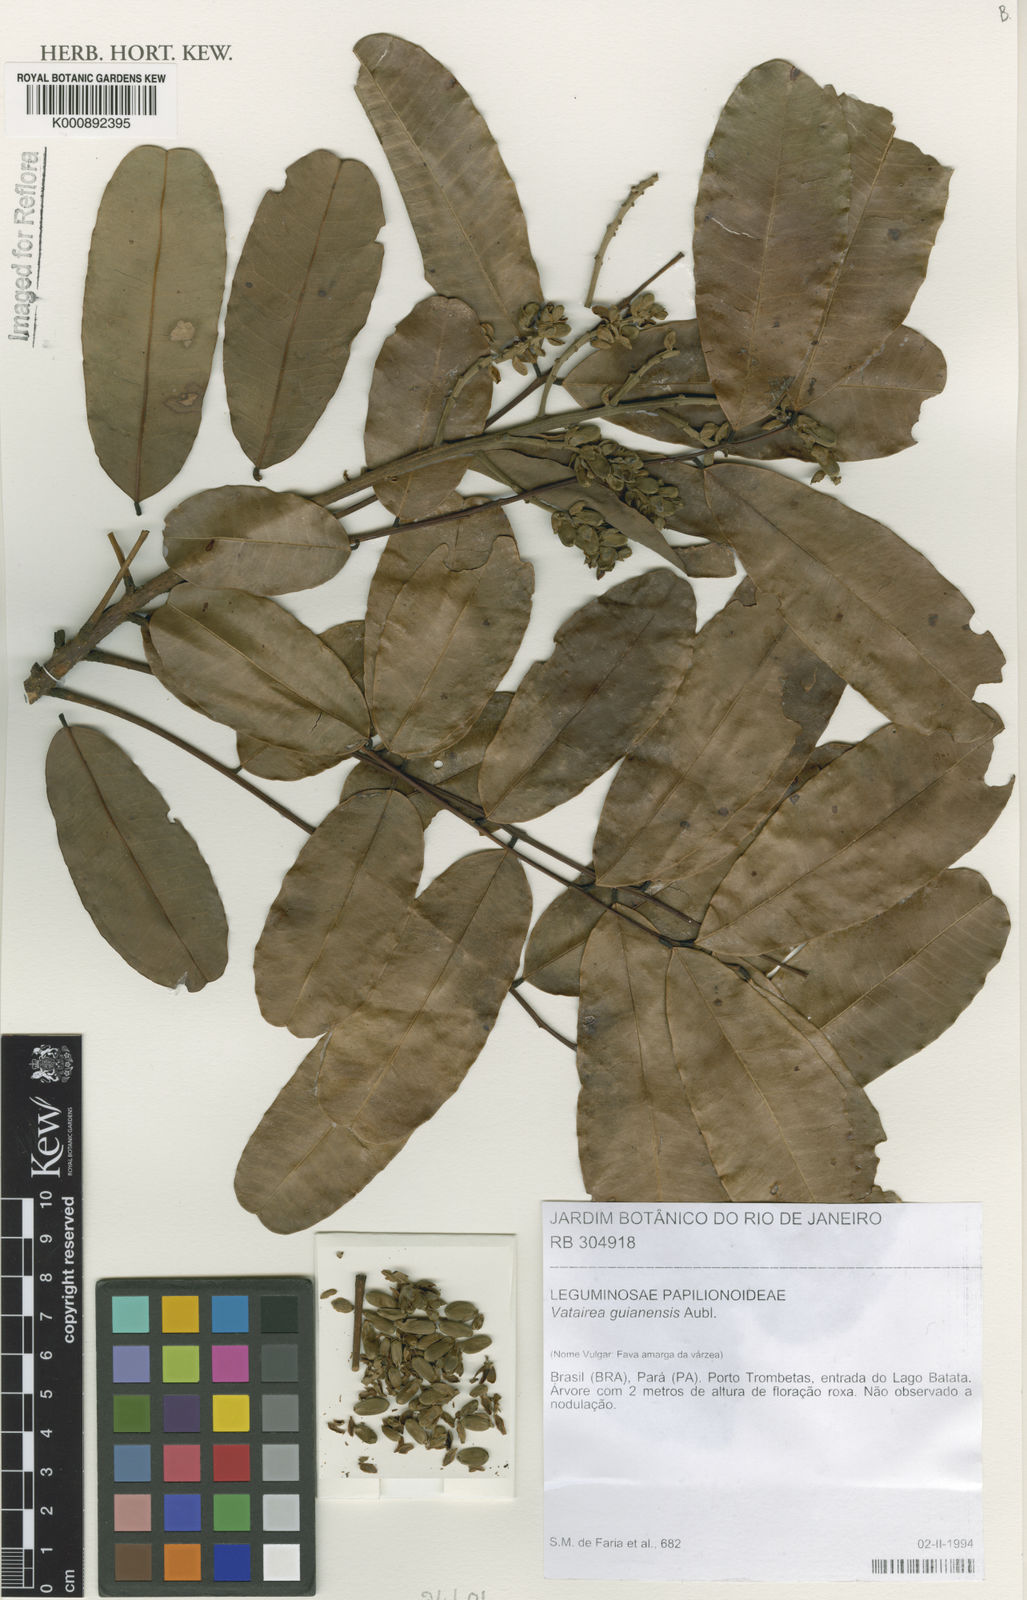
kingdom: Plantae
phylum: Tracheophyta
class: Magnoliopsida
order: Fabales
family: Fabaceae
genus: Vatairea
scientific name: Vatairea guianensis
